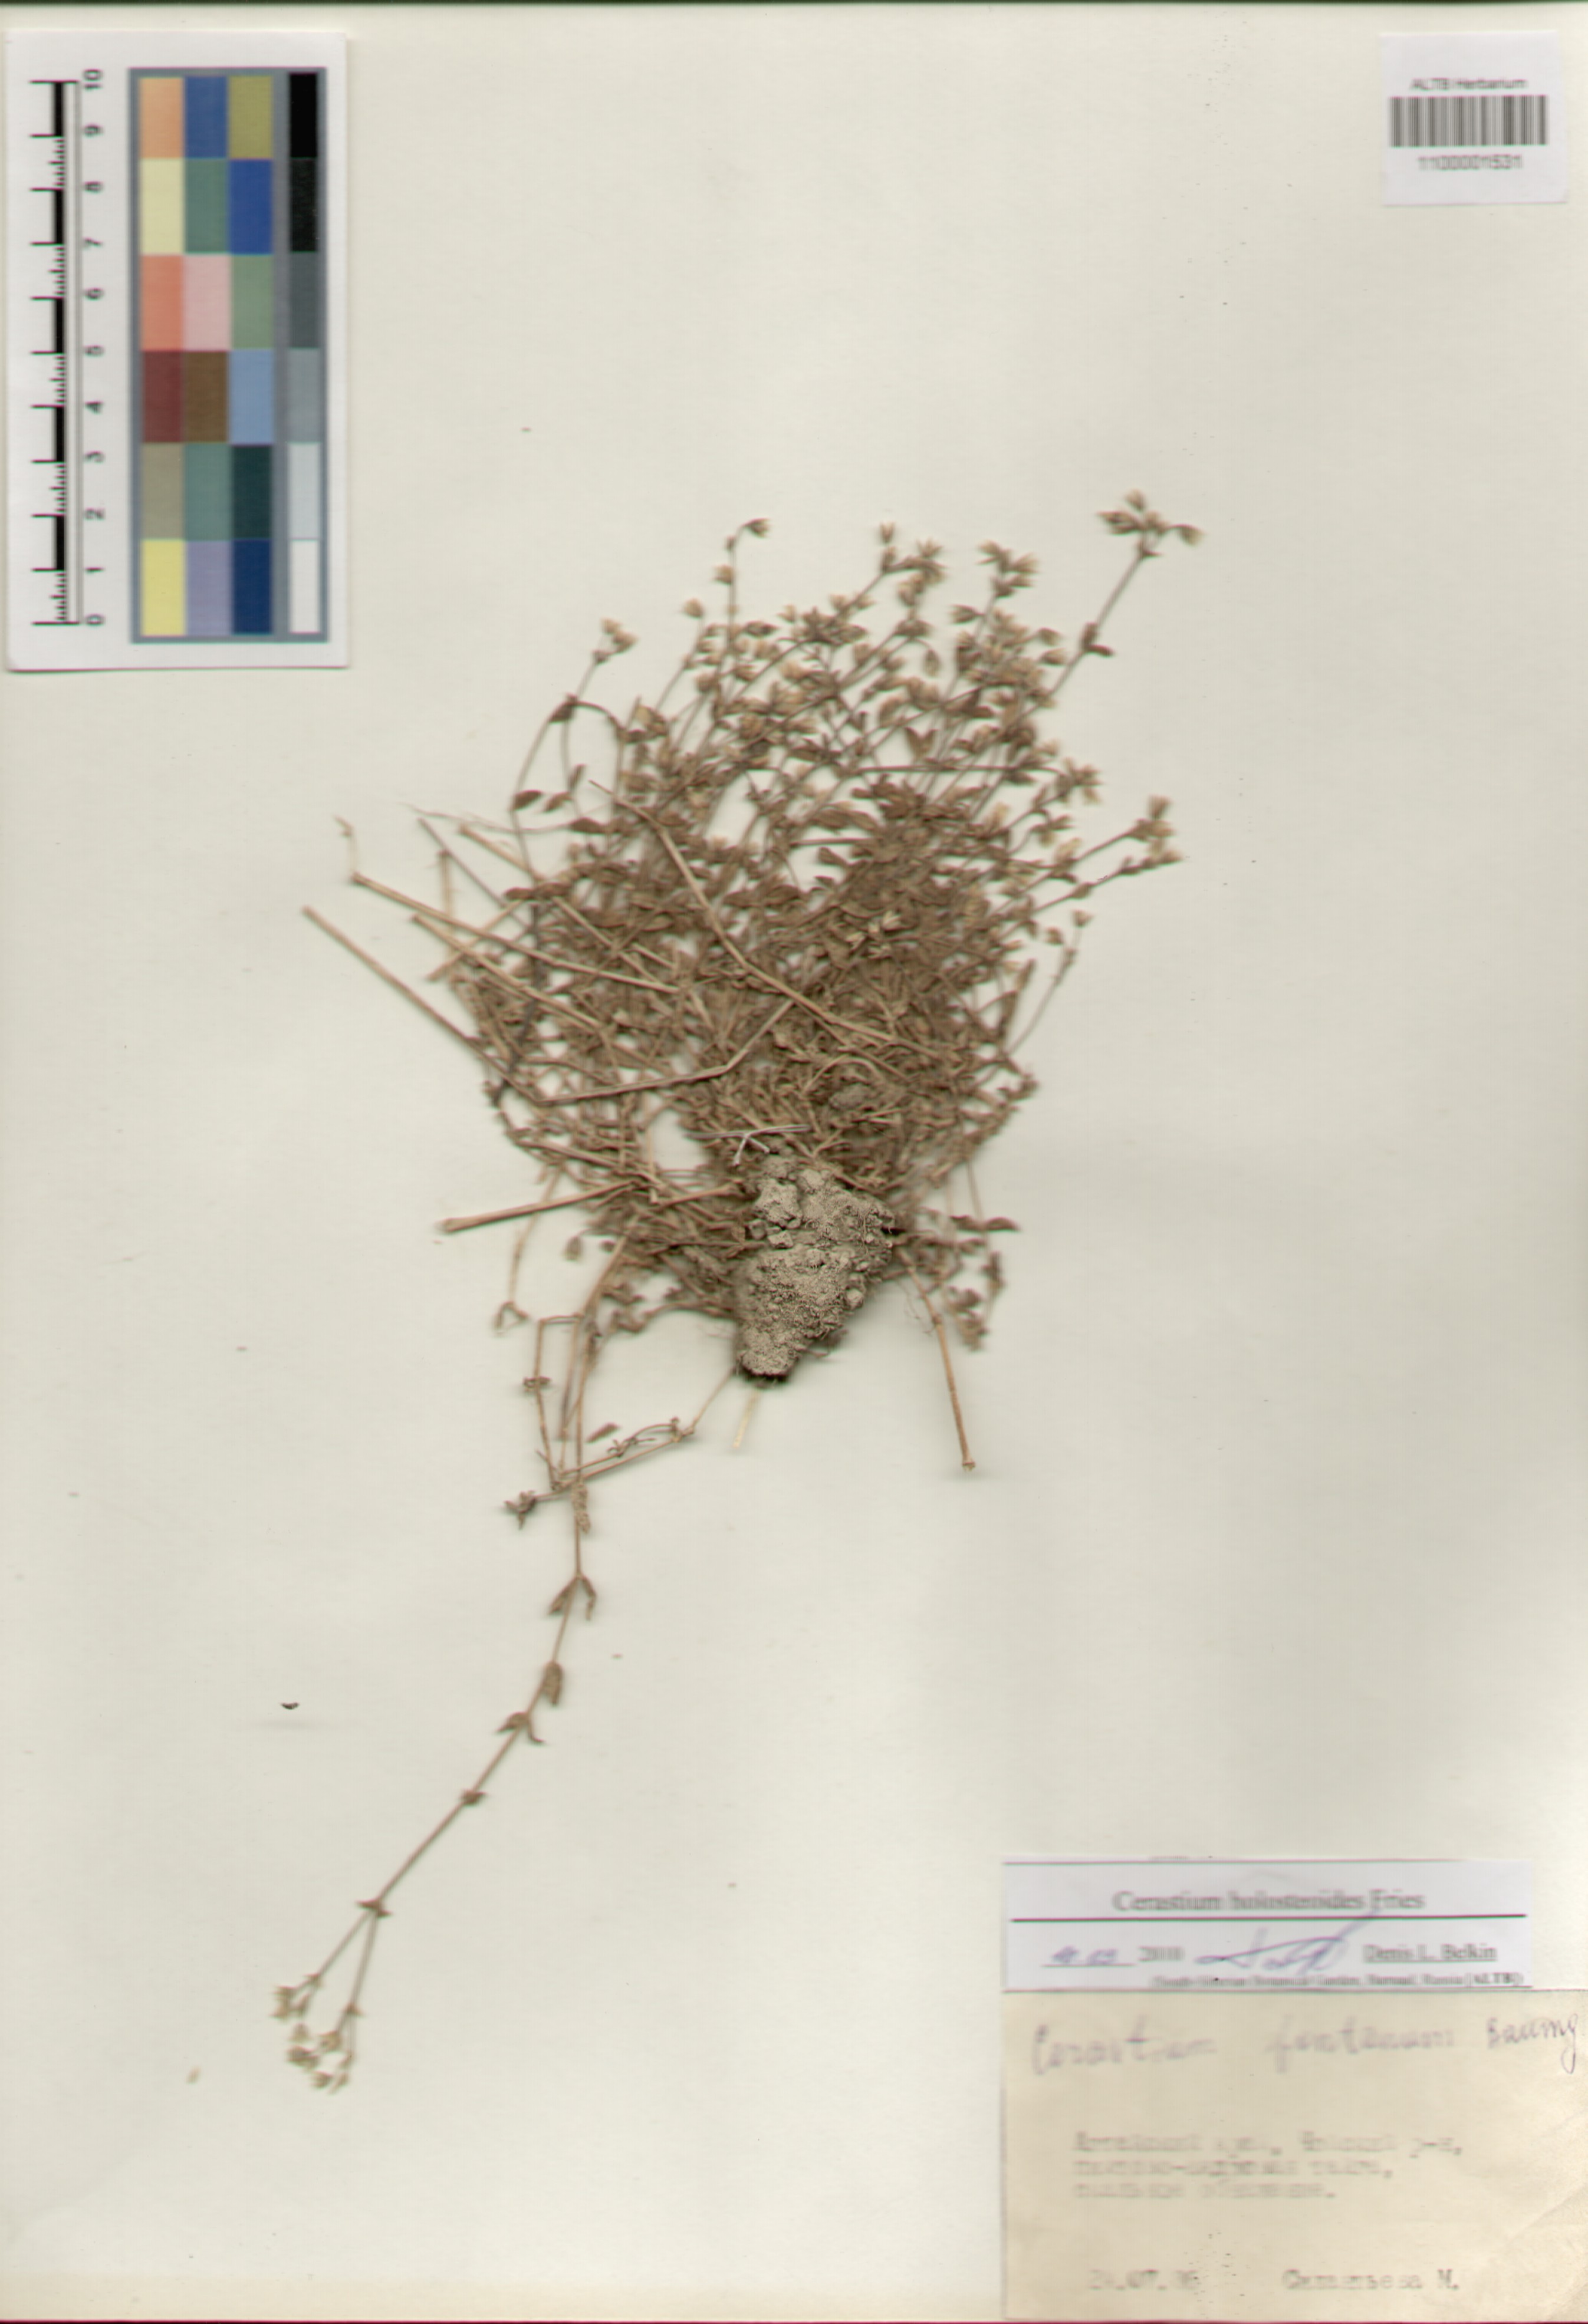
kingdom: Plantae
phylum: Tracheophyta
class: Magnoliopsida
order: Caryophyllales
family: Caryophyllaceae
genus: Cerastium
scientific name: Cerastium holosteoides
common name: Big chickweed
